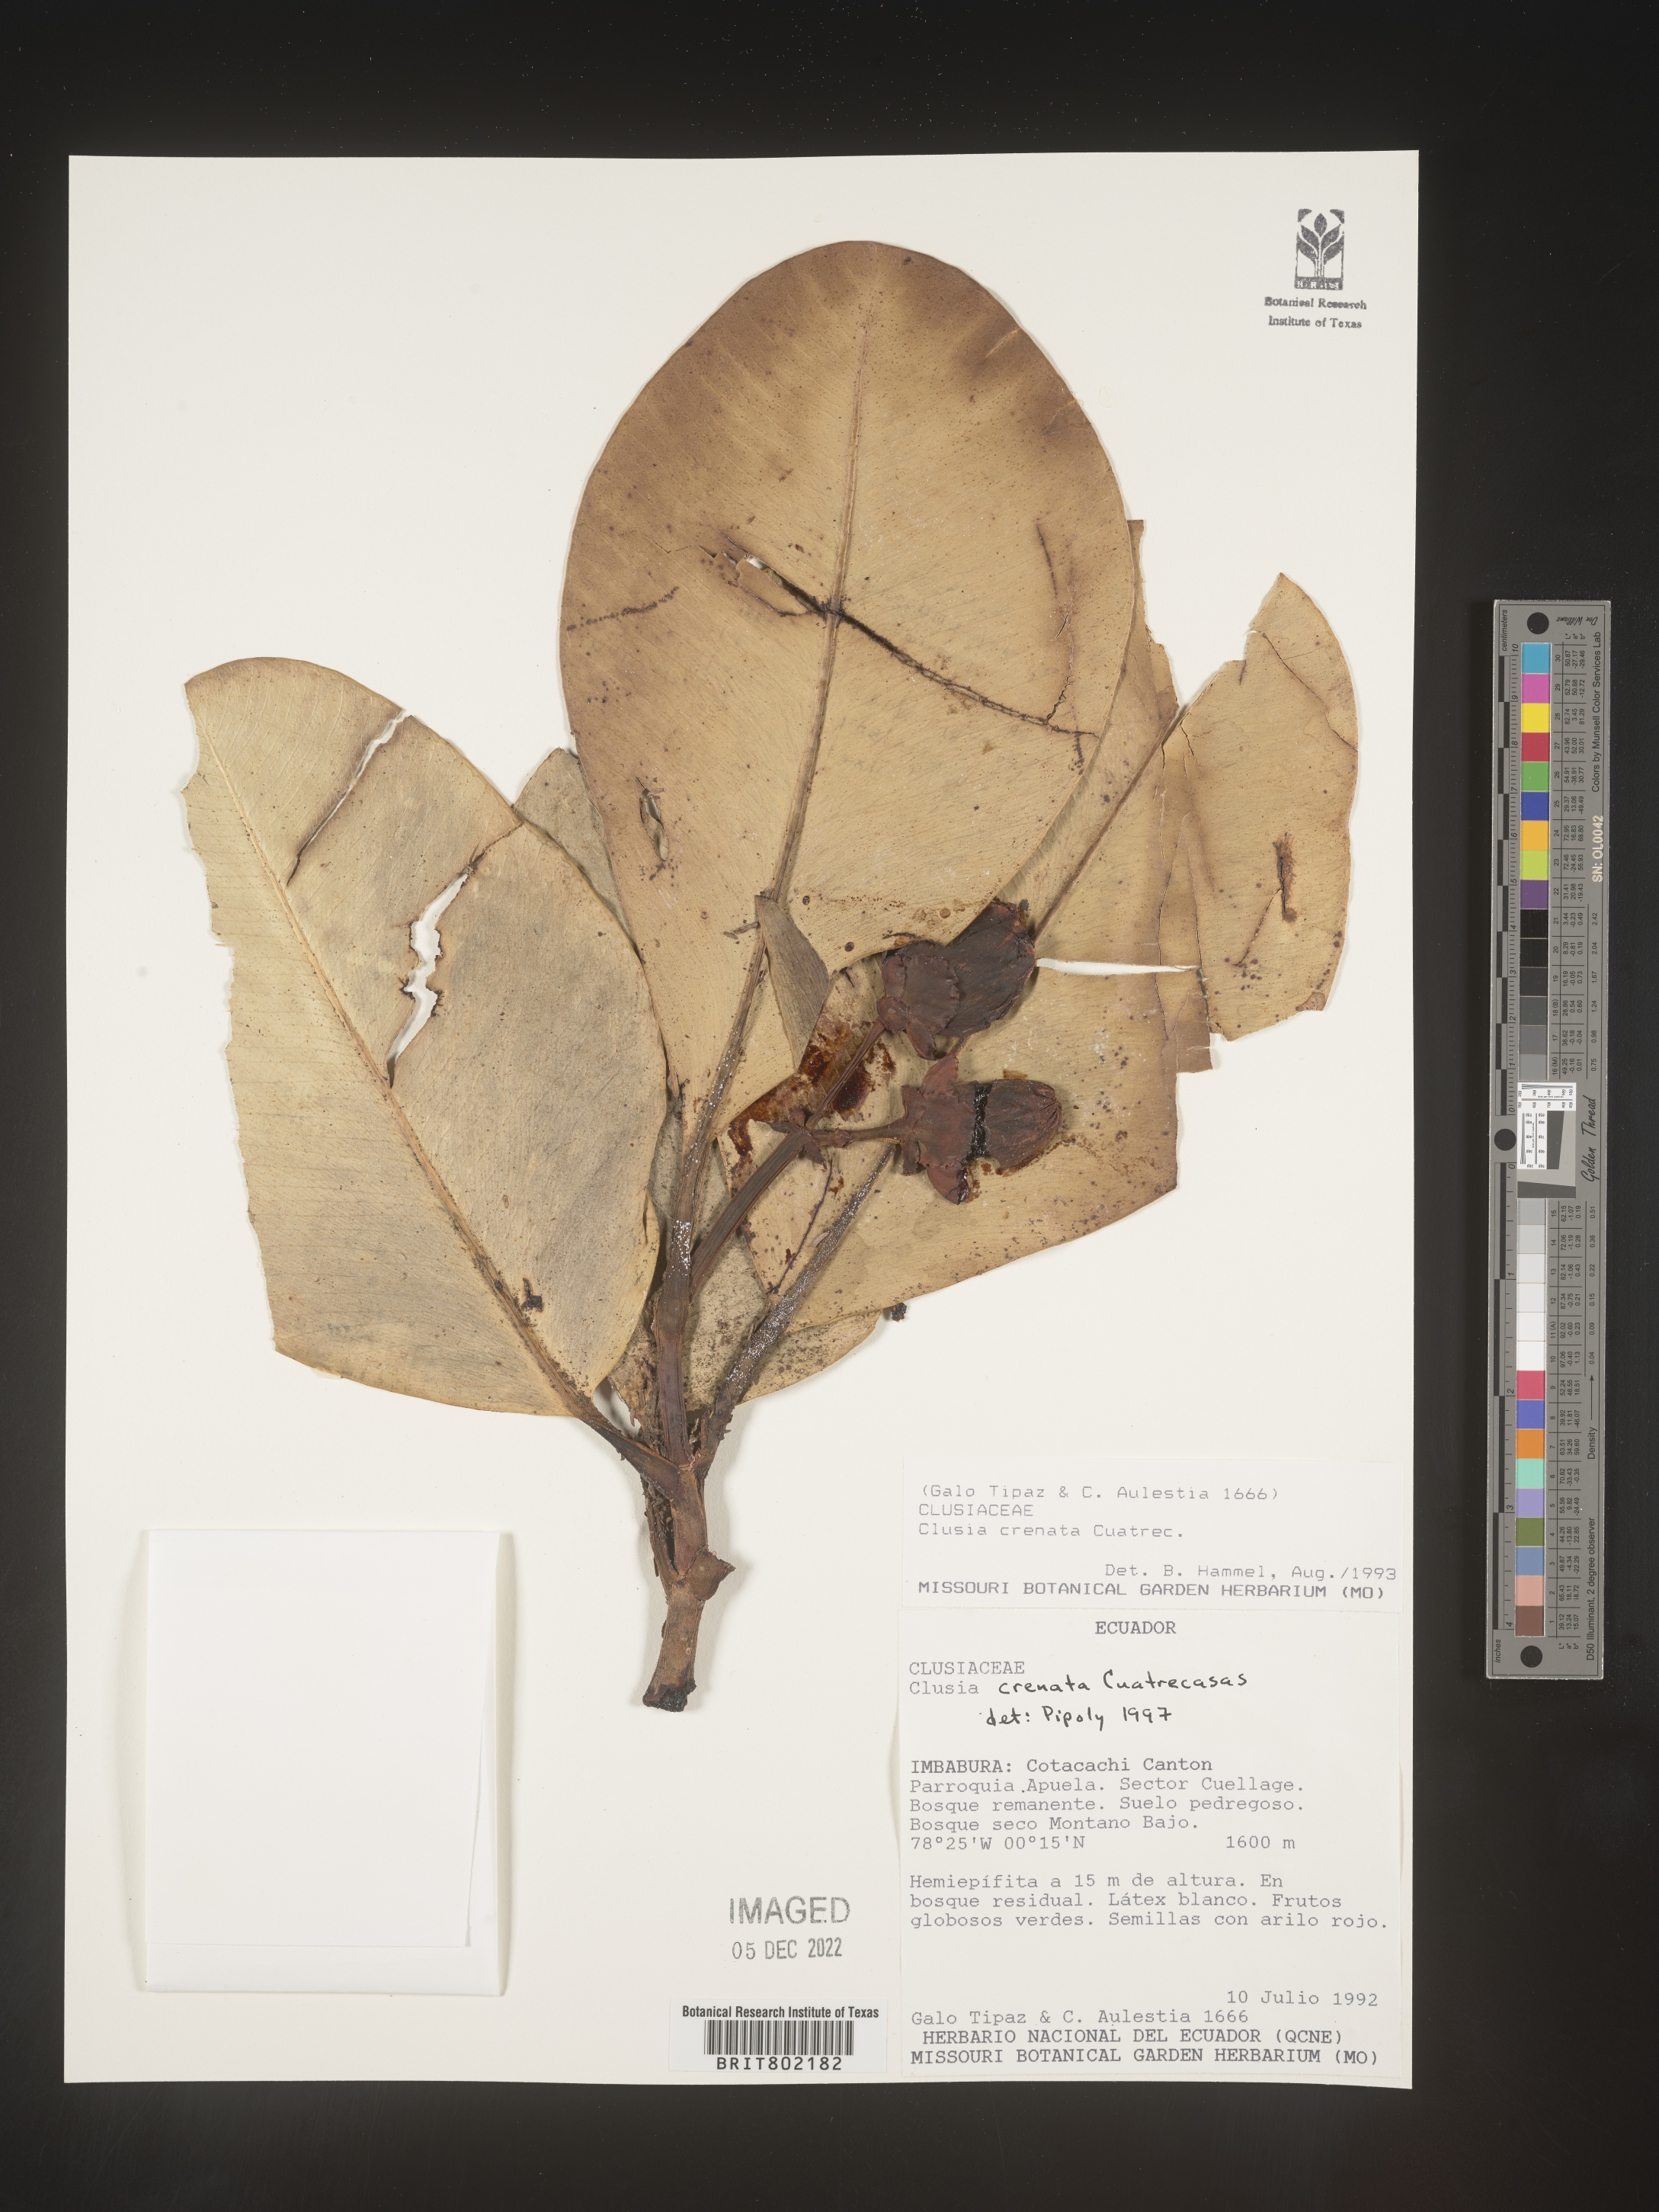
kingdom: Plantae
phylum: Tracheophyta
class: Magnoliopsida
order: Malpighiales
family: Clusiaceae
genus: Clusia
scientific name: Clusia
